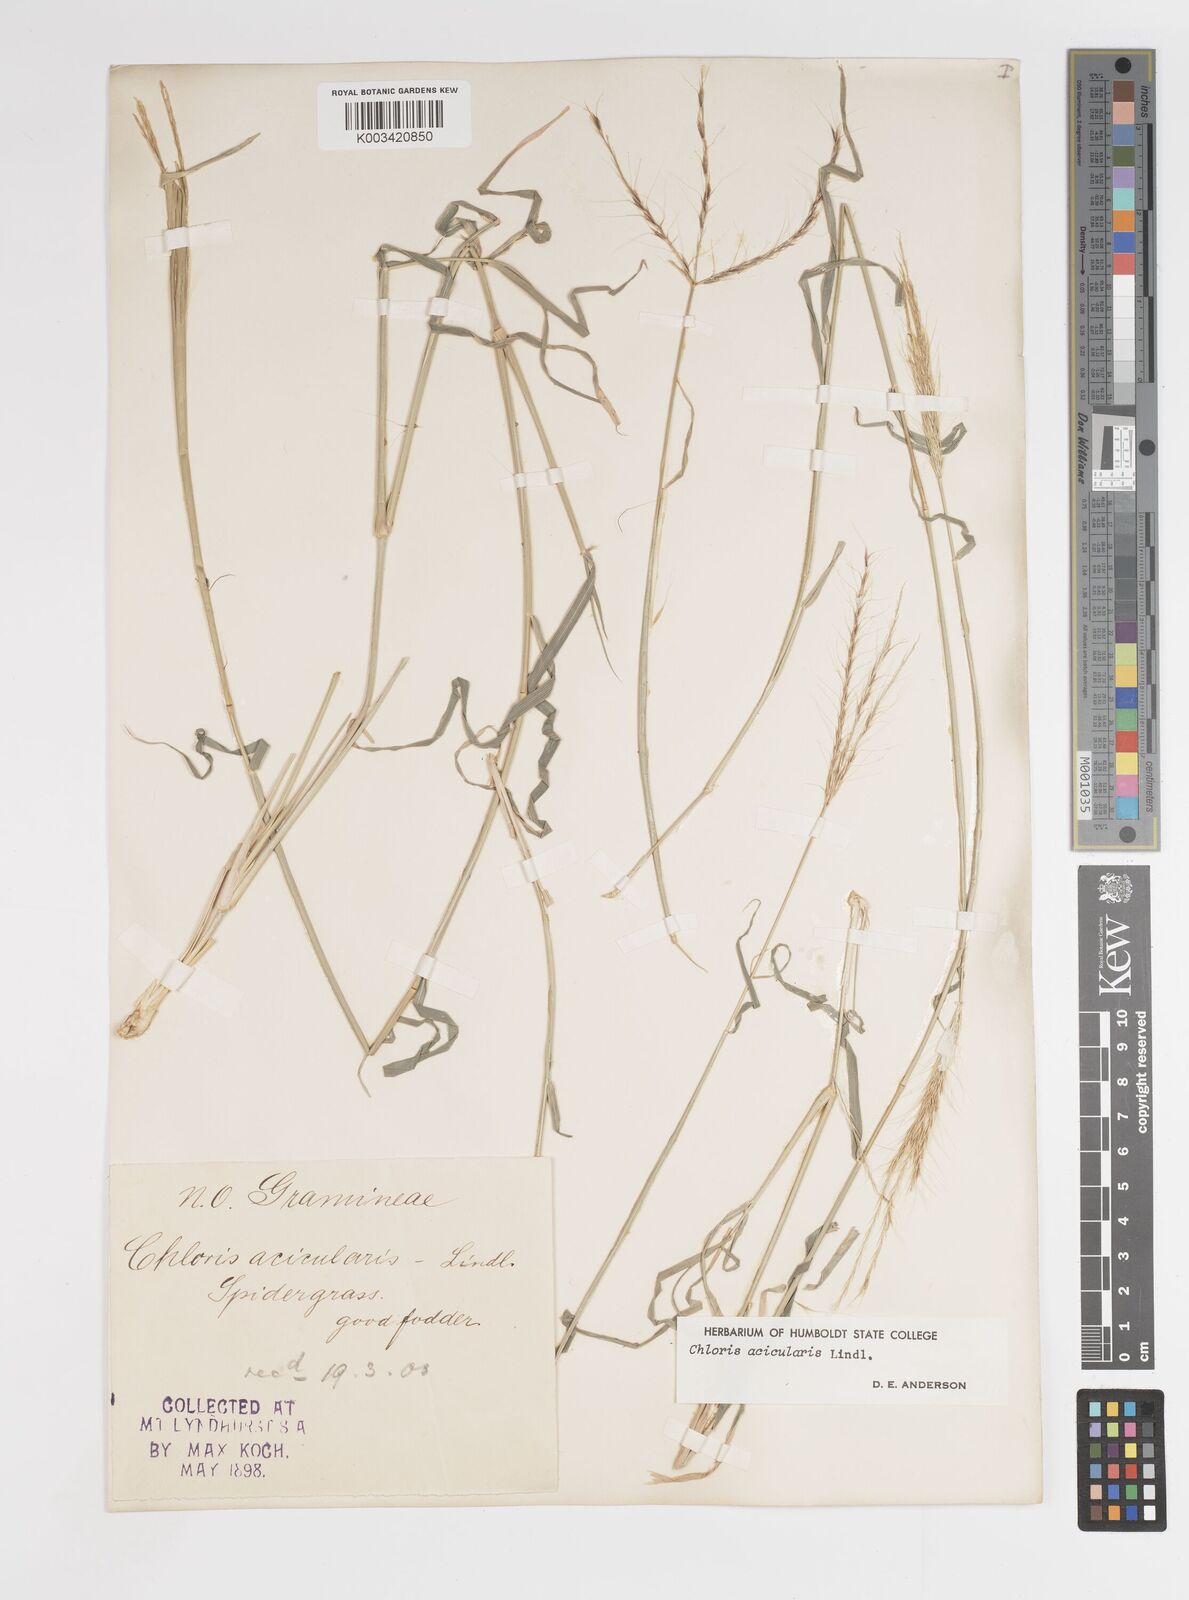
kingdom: Plantae
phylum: Tracheophyta
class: Liliopsida
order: Poales
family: Poaceae
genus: Enteropogon
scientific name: Enteropogon acicularis
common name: Curly windmill grass
